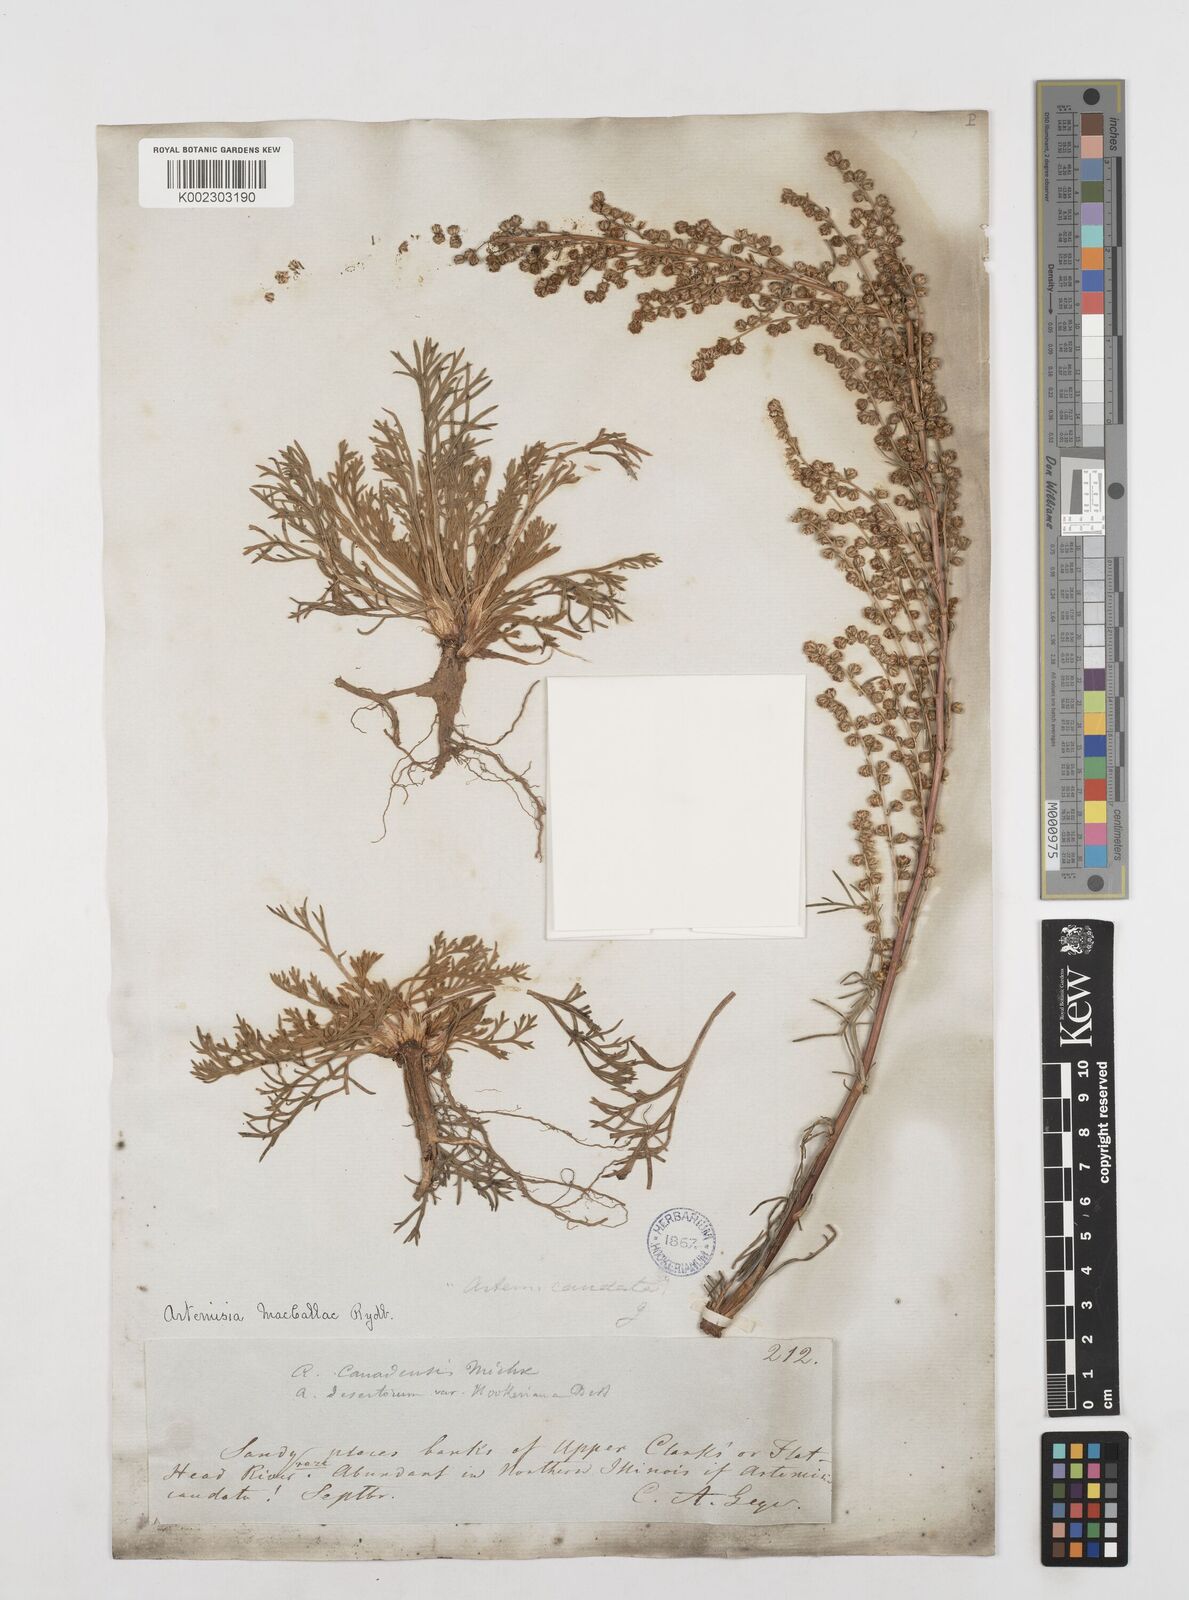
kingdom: Plantae
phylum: Tracheophyta
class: Magnoliopsida
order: Asterales
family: Asteraceae
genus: Artemisia
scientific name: Artemisia campestris
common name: Field wormwood
